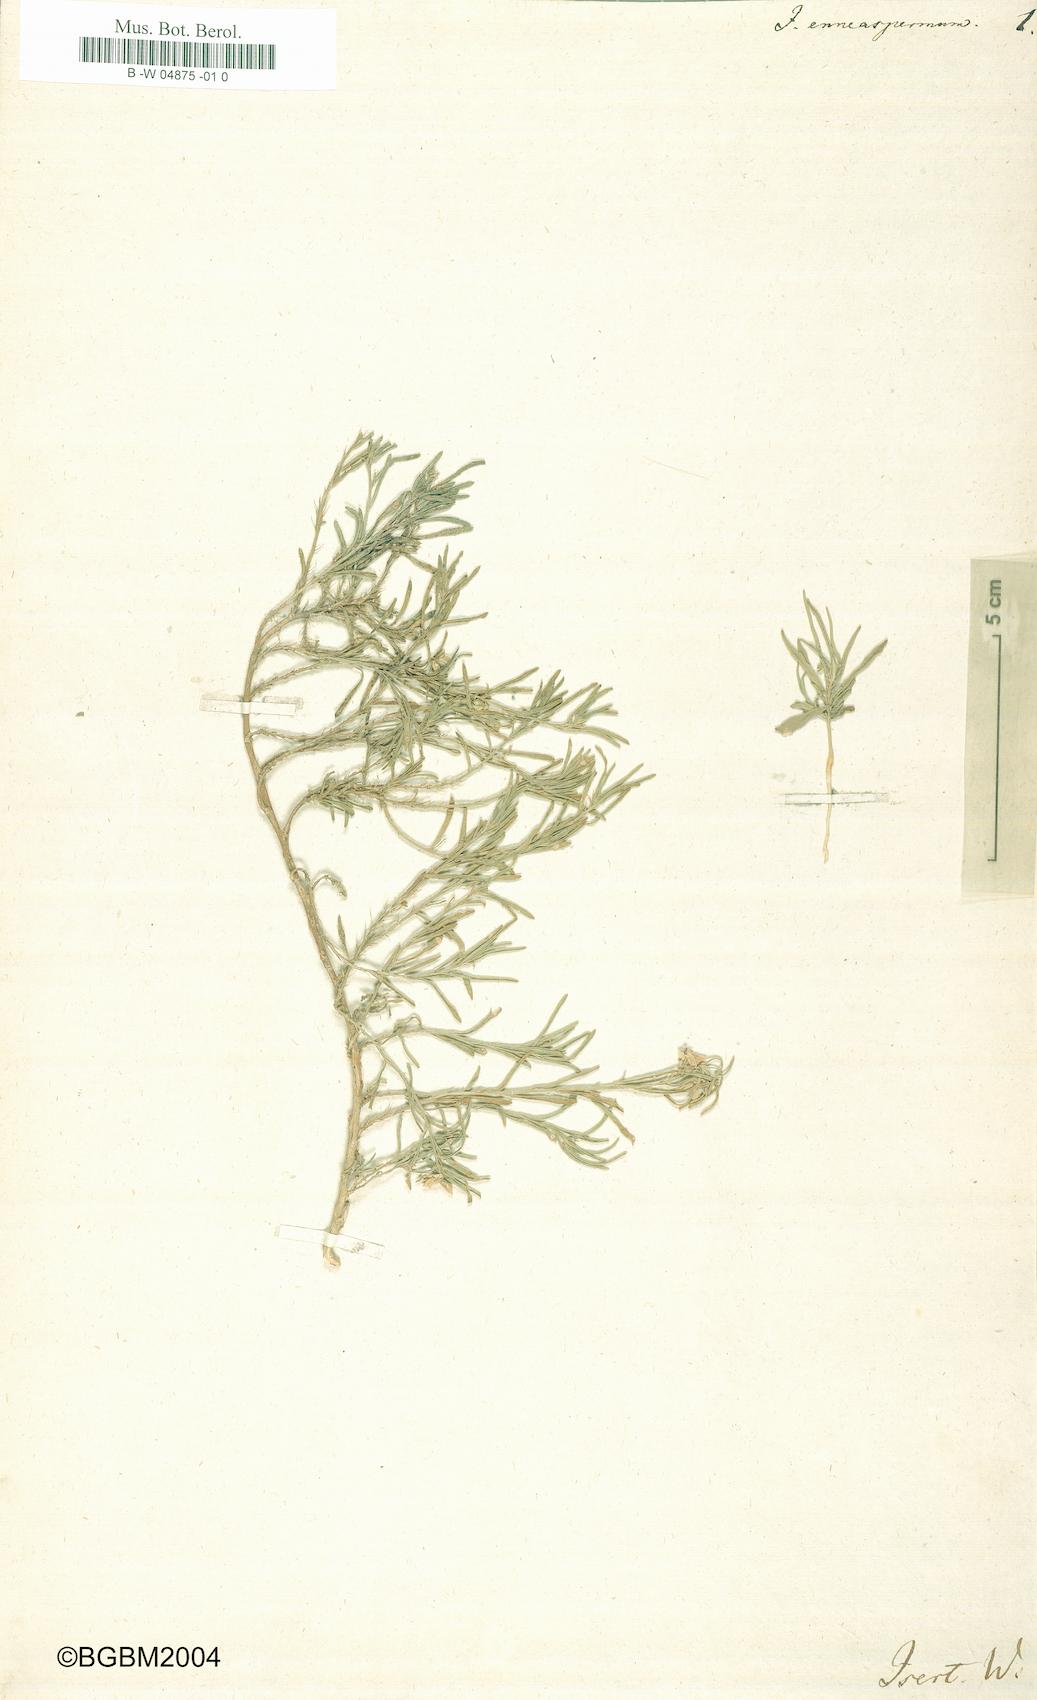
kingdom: Plantae
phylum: Tracheophyta
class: Magnoliopsida
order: Malpighiales
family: Violaceae
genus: Pigea
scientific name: Pigea enneasperma
